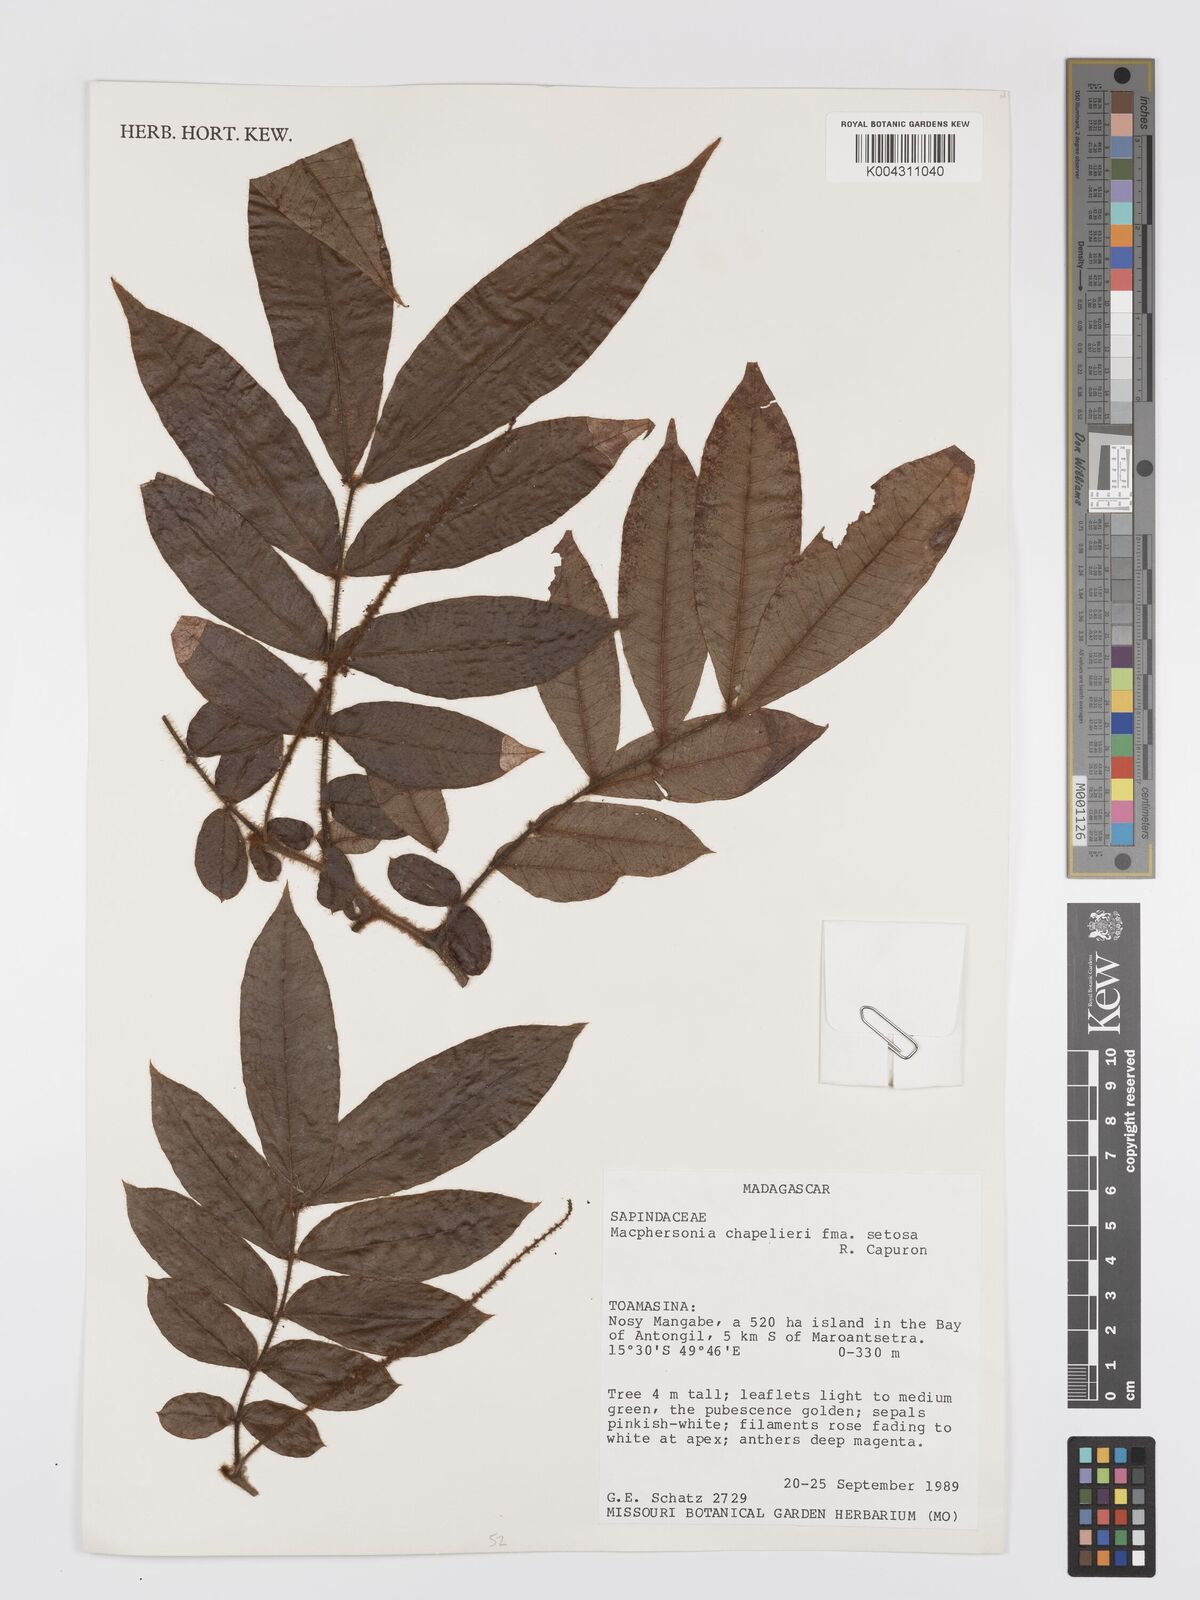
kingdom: Plantae
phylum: Tracheophyta
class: Magnoliopsida
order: Sapindales
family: Sapindaceae
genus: Macphersonia
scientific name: Macphersonia chapelieri
